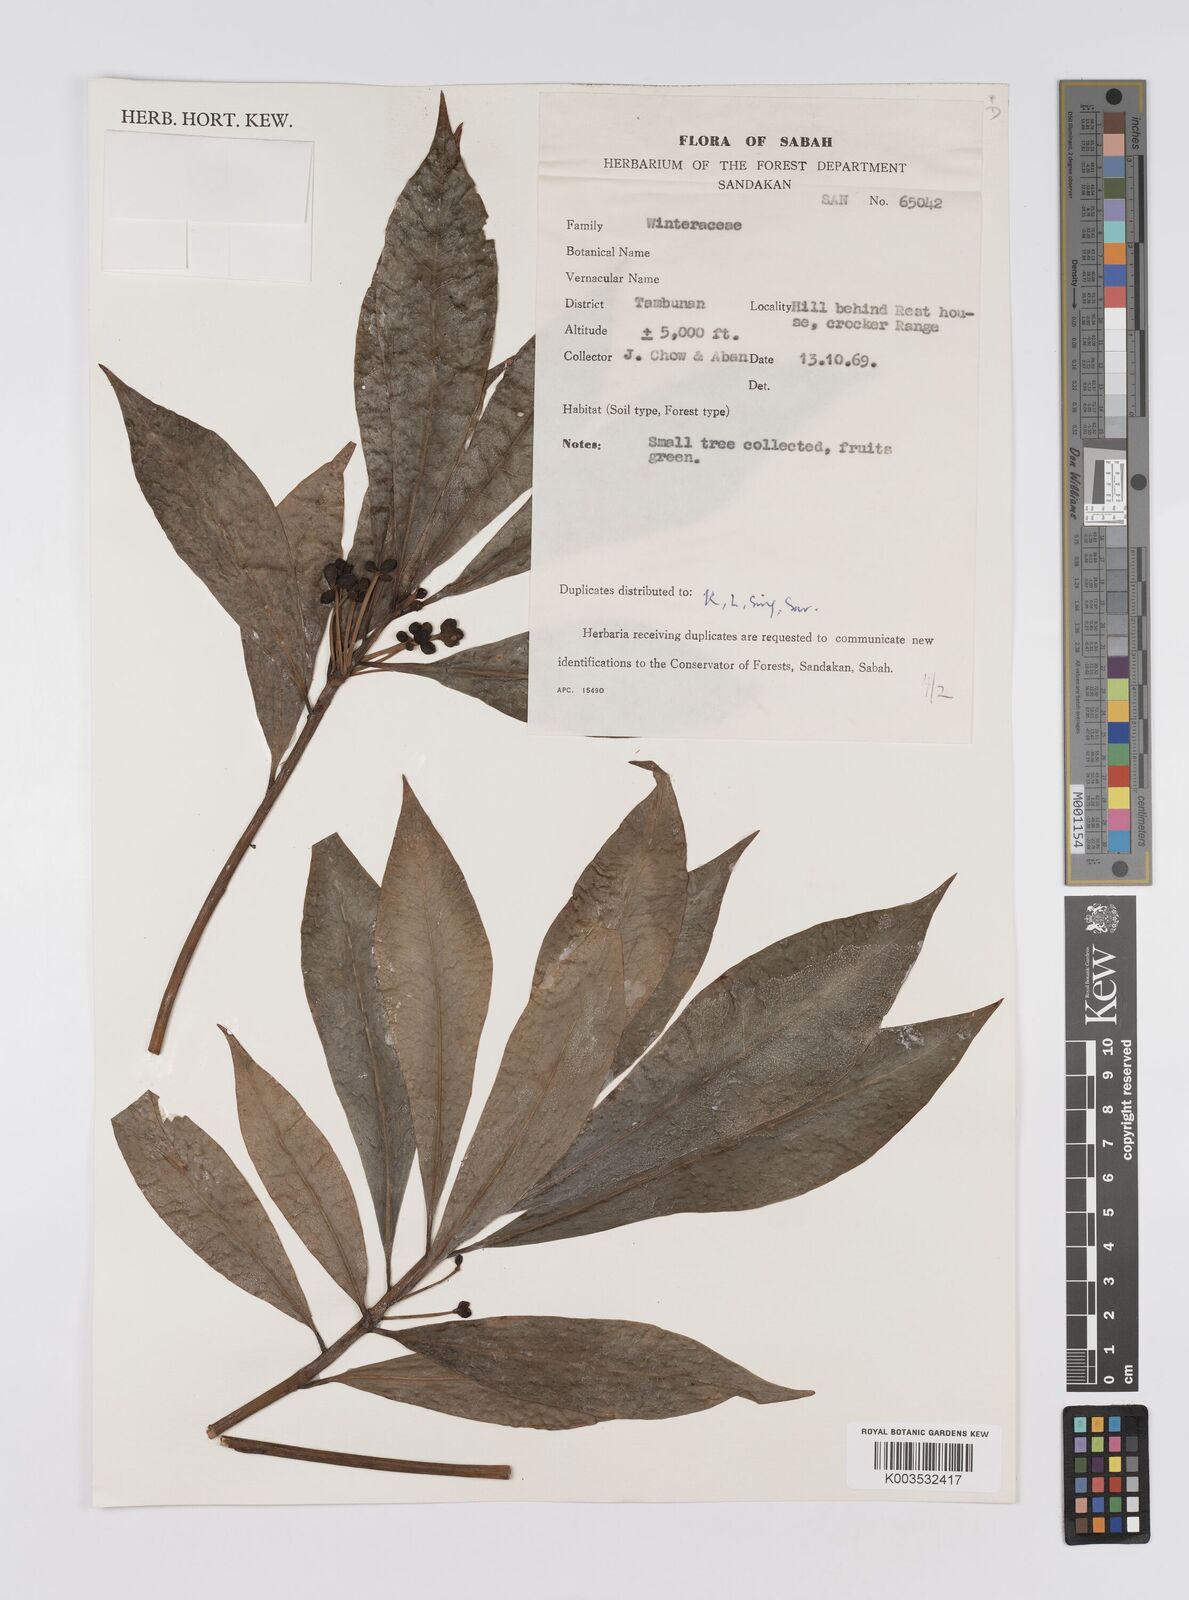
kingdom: Plantae
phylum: Tracheophyta
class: Magnoliopsida
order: Canellales
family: Winteraceae
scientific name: Winteraceae
